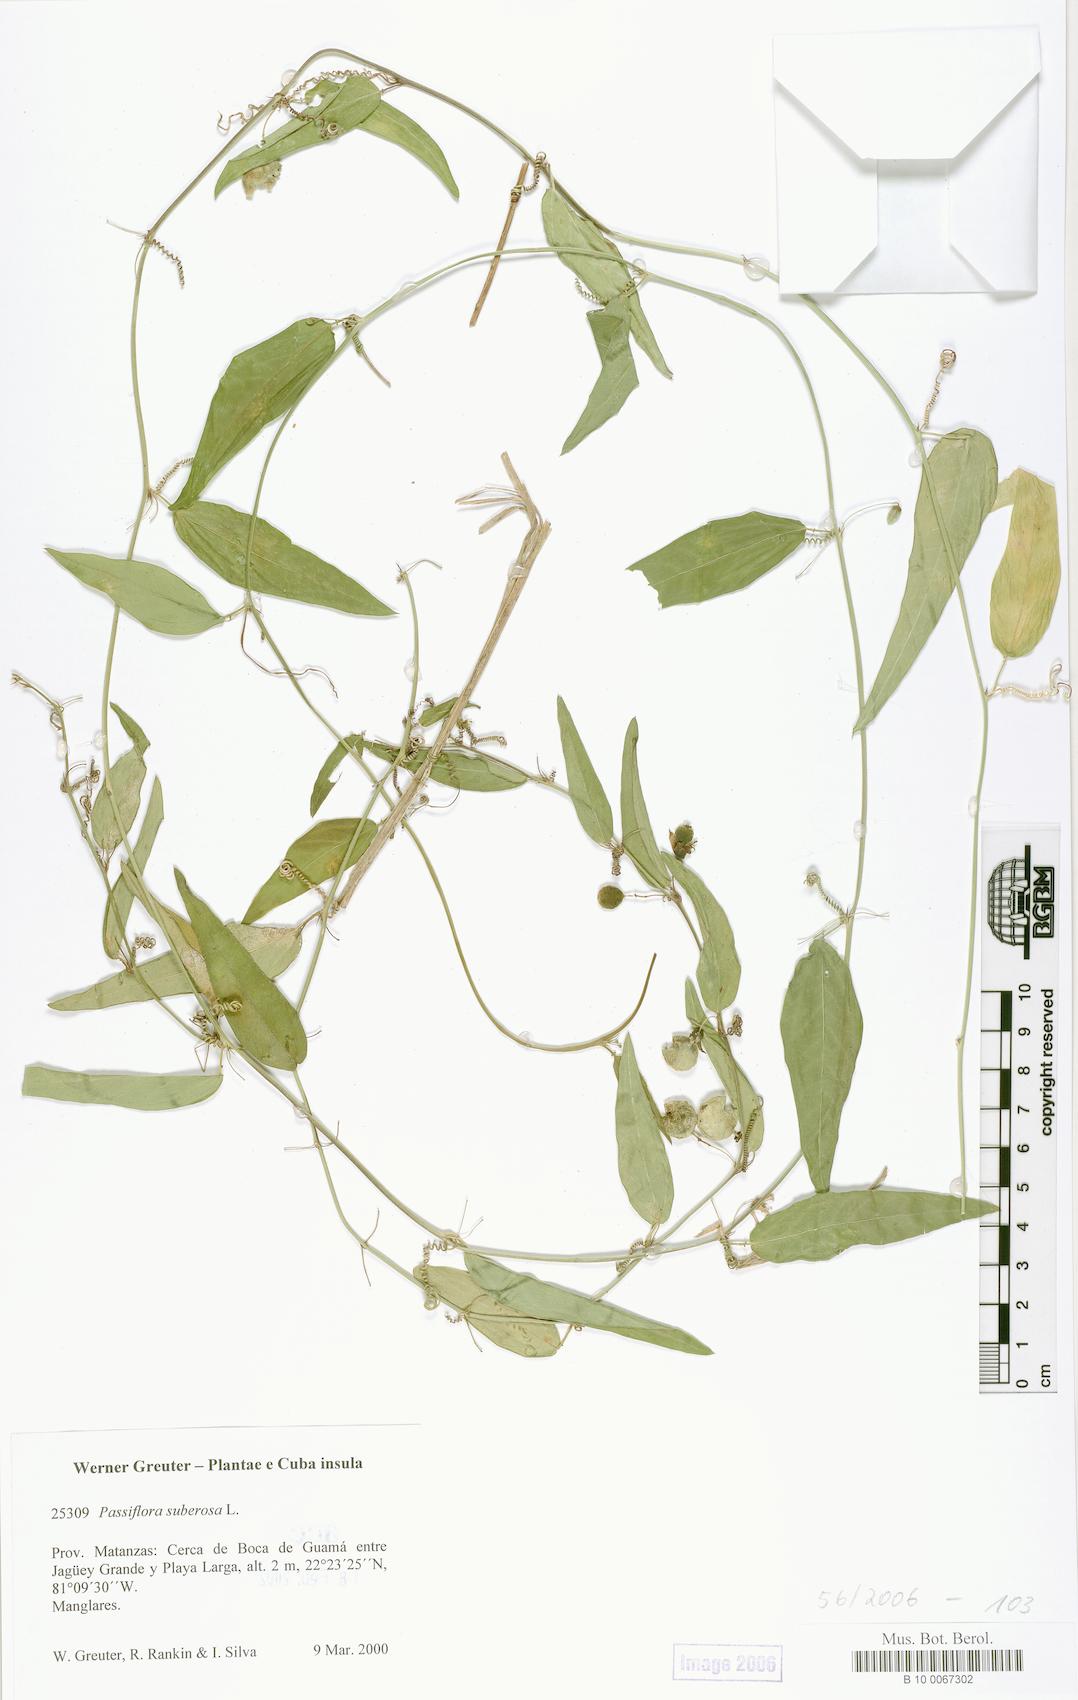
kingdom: Plantae
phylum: Tracheophyta
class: Magnoliopsida
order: Malpighiales
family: Passifloraceae
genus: Passiflora
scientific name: Passiflora suberosa
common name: Wild passionfruit
